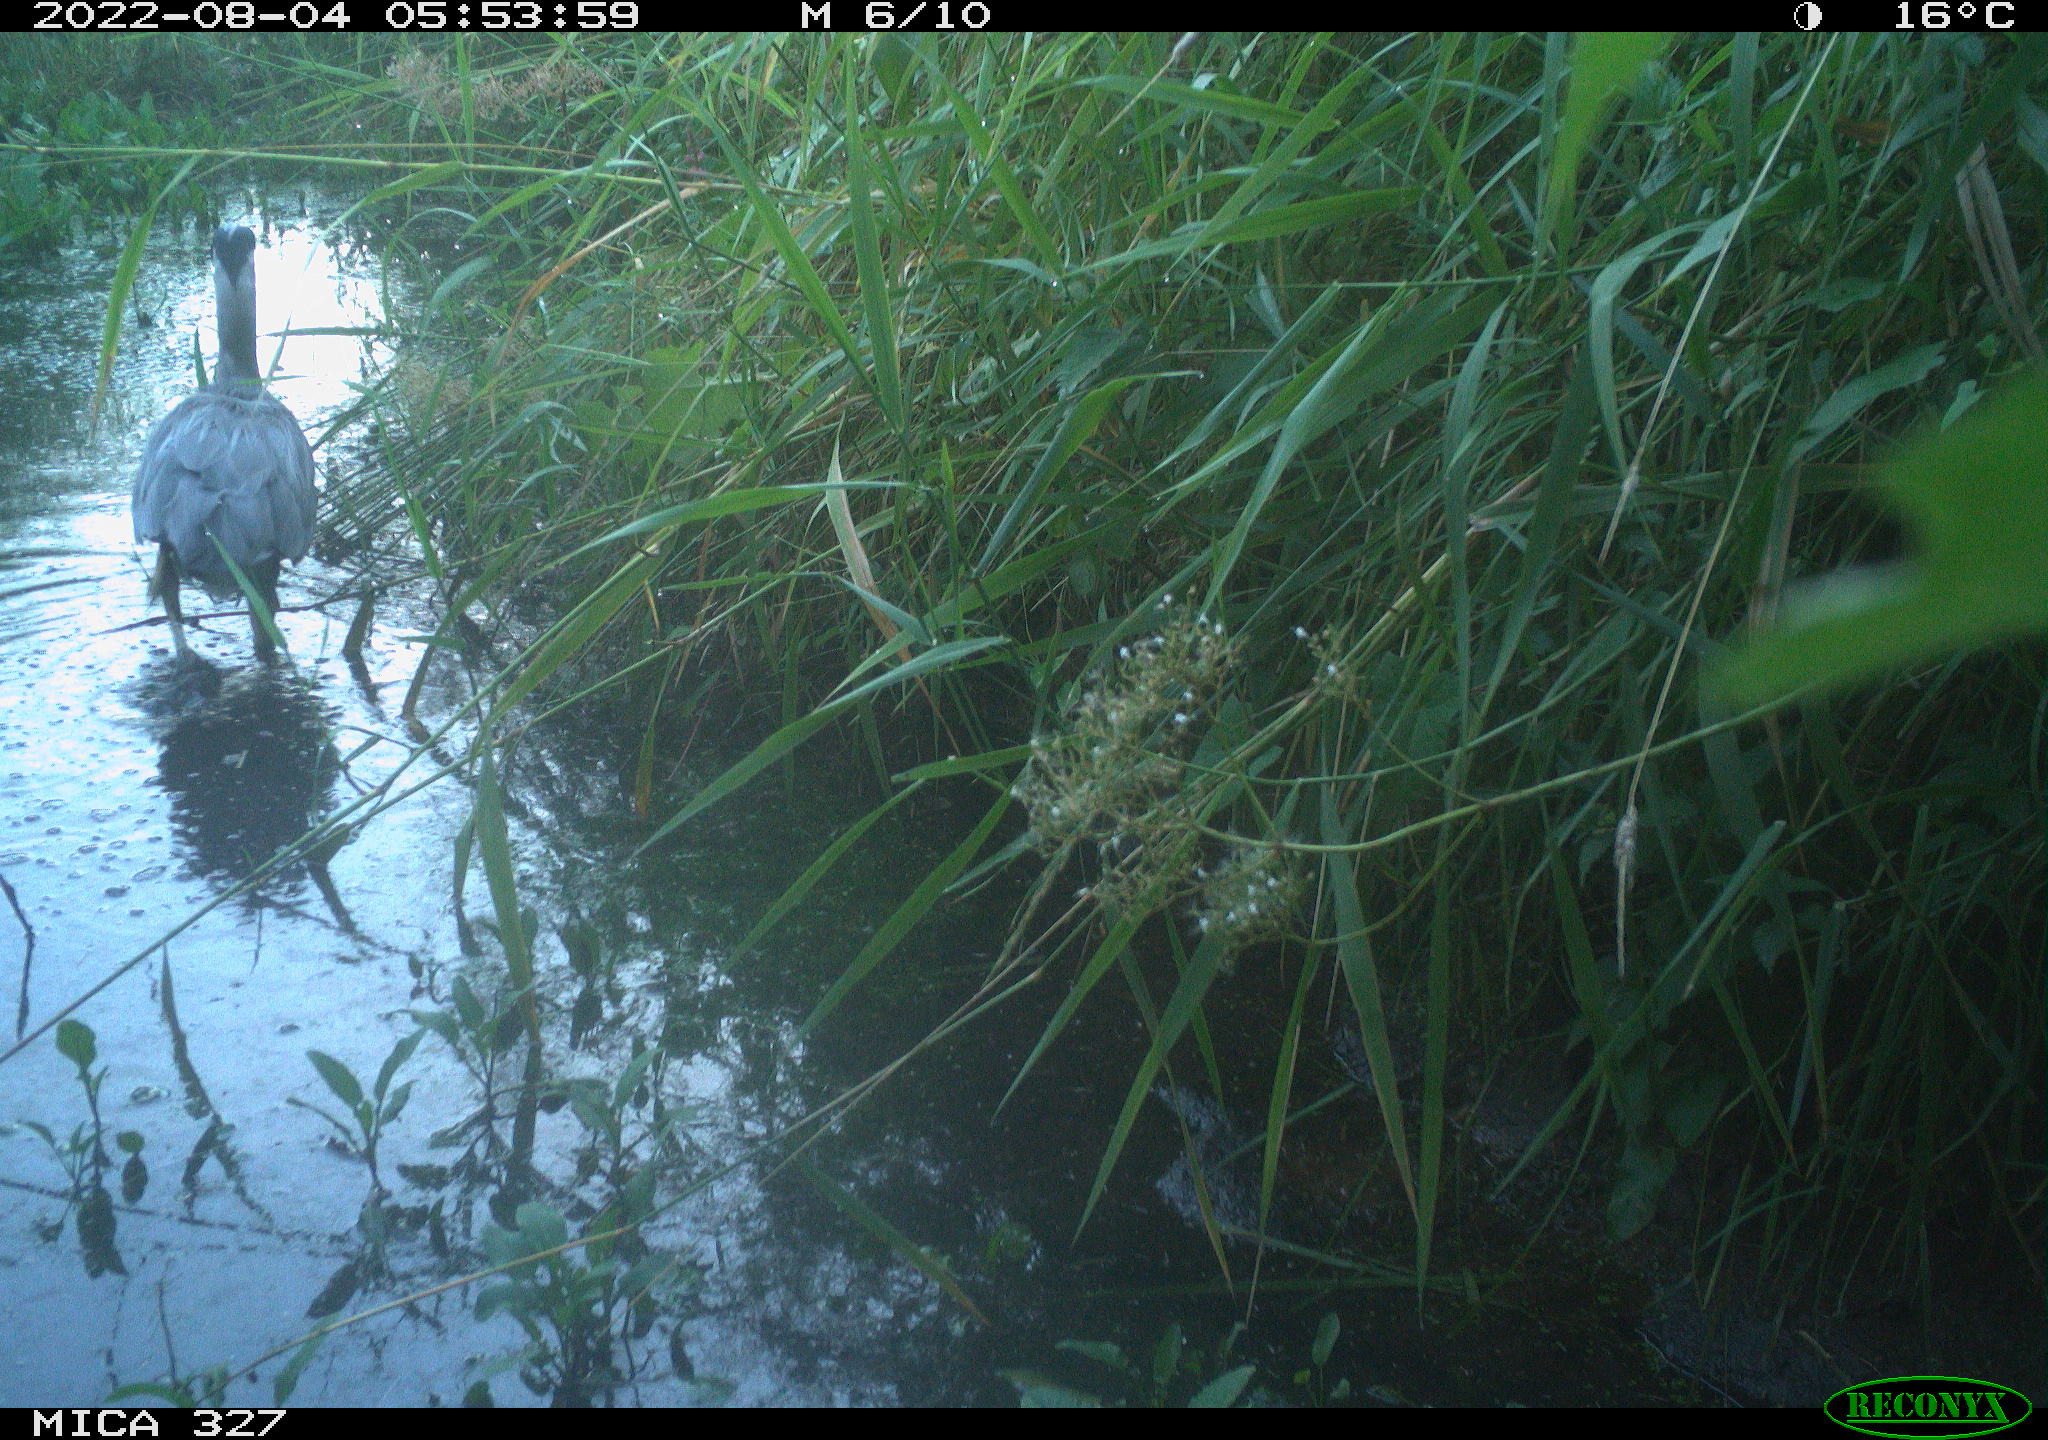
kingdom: Animalia
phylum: Chordata
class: Aves
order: Pelecaniformes
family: Ardeidae
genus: Ardea
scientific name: Ardea cinerea
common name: Grey heron
